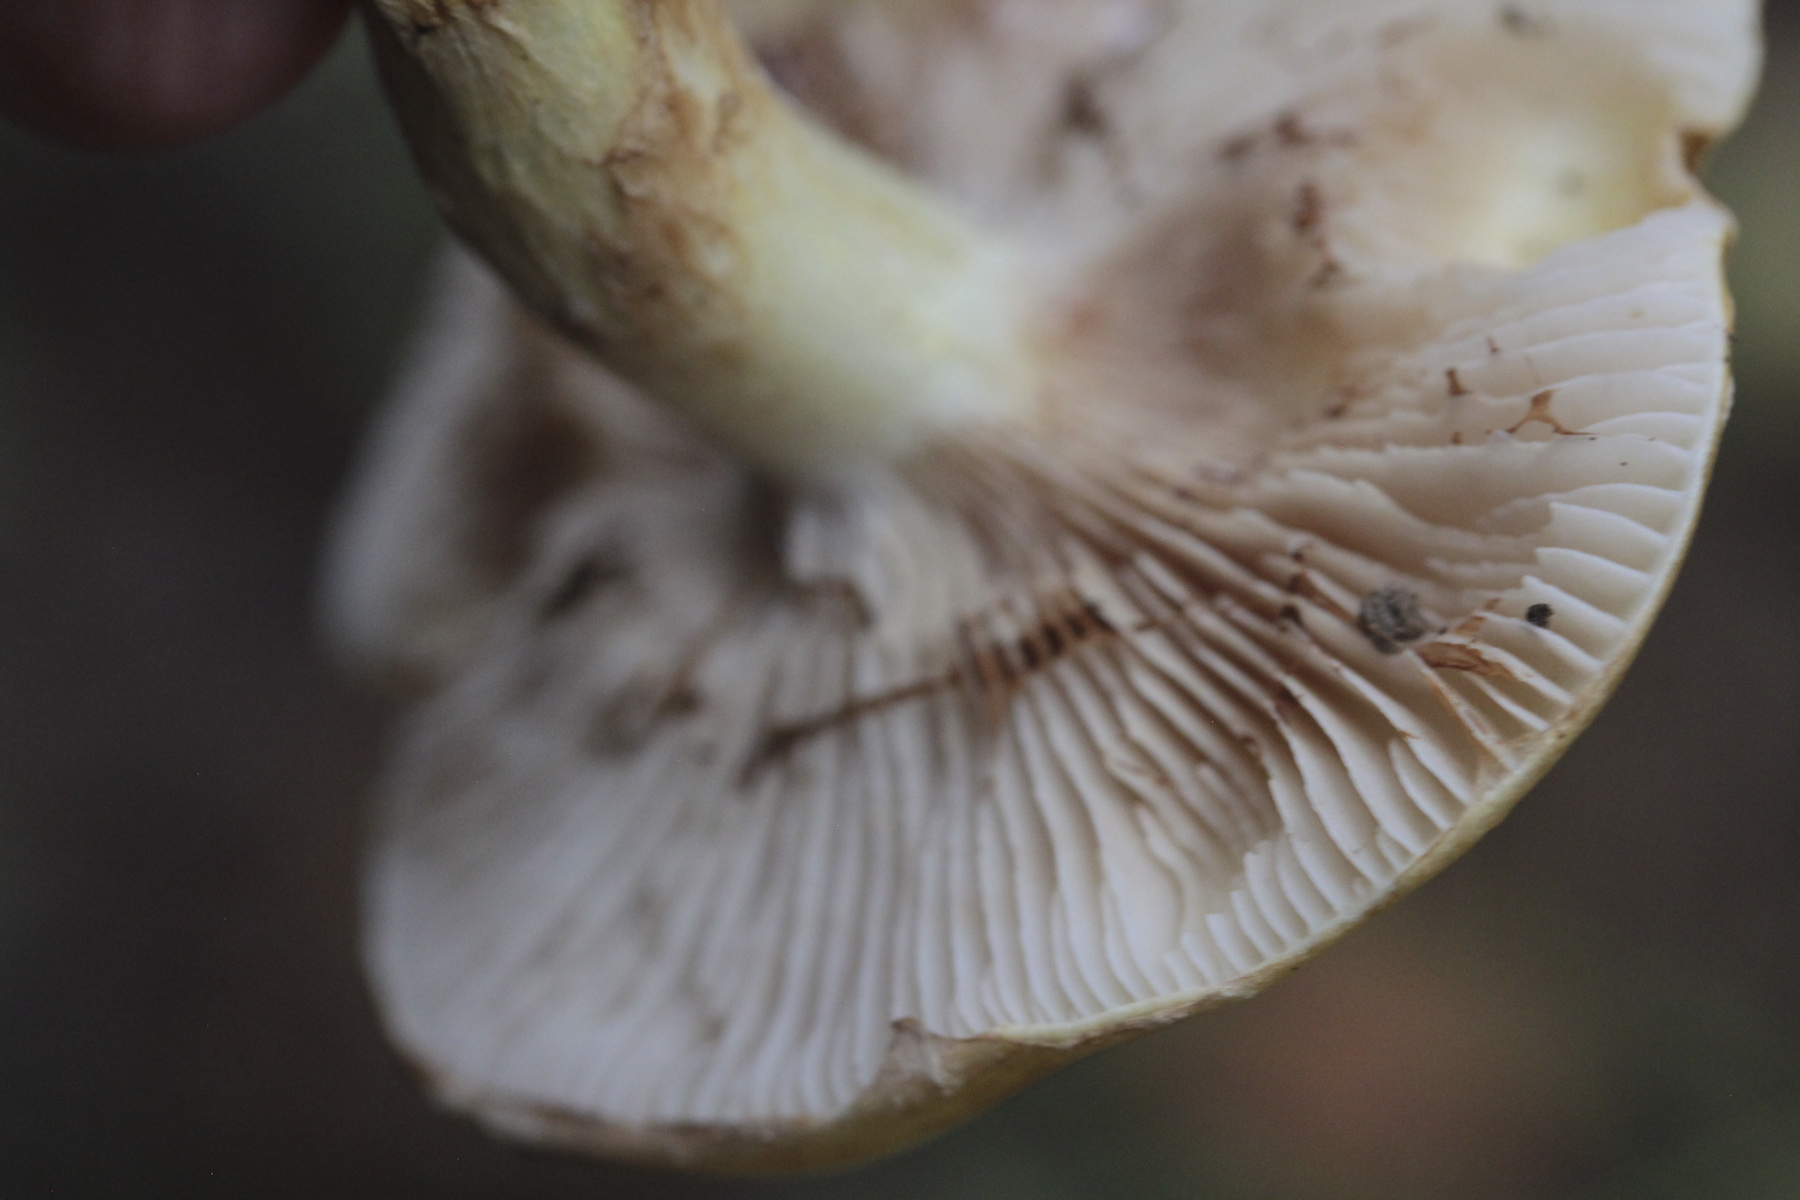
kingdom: Fungi
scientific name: Fungi
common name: Fungi
